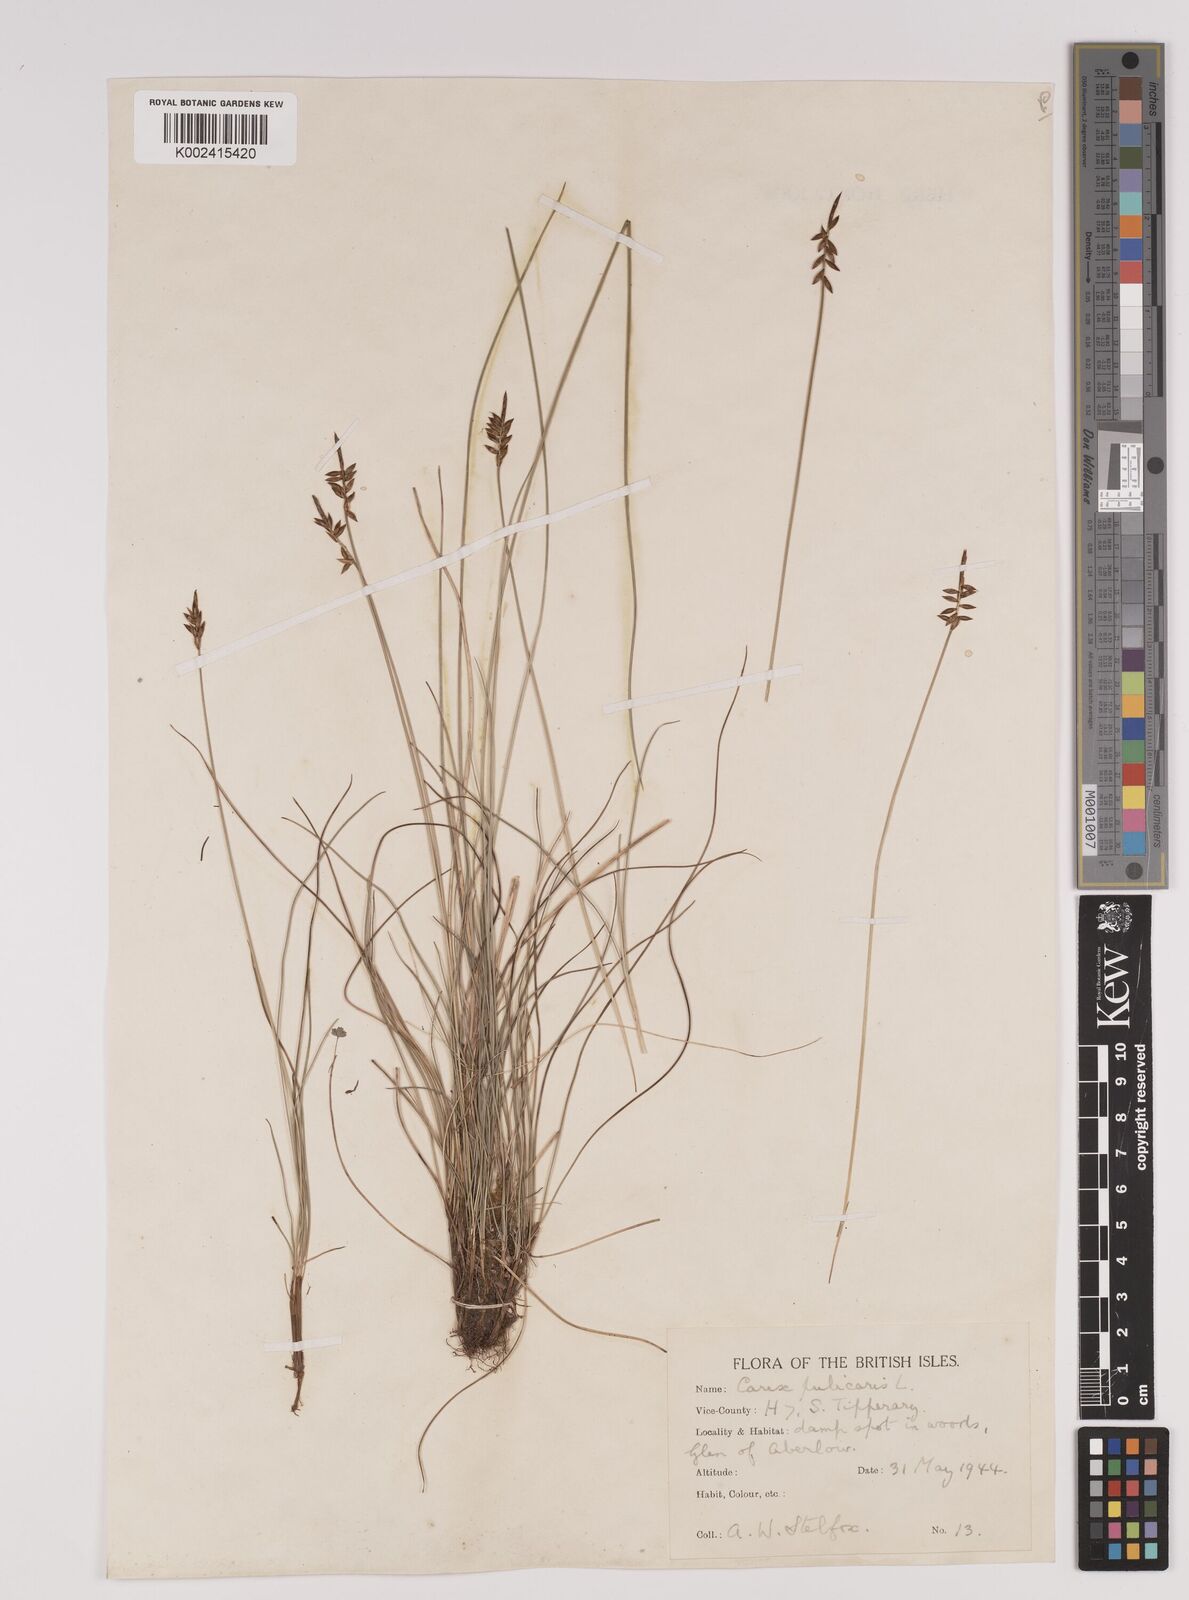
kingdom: Plantae
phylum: Tracheophyta
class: Liliopsida
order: Poales
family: Cyperaceae
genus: Carex
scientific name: Carex pulicaris
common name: Flea sedge
